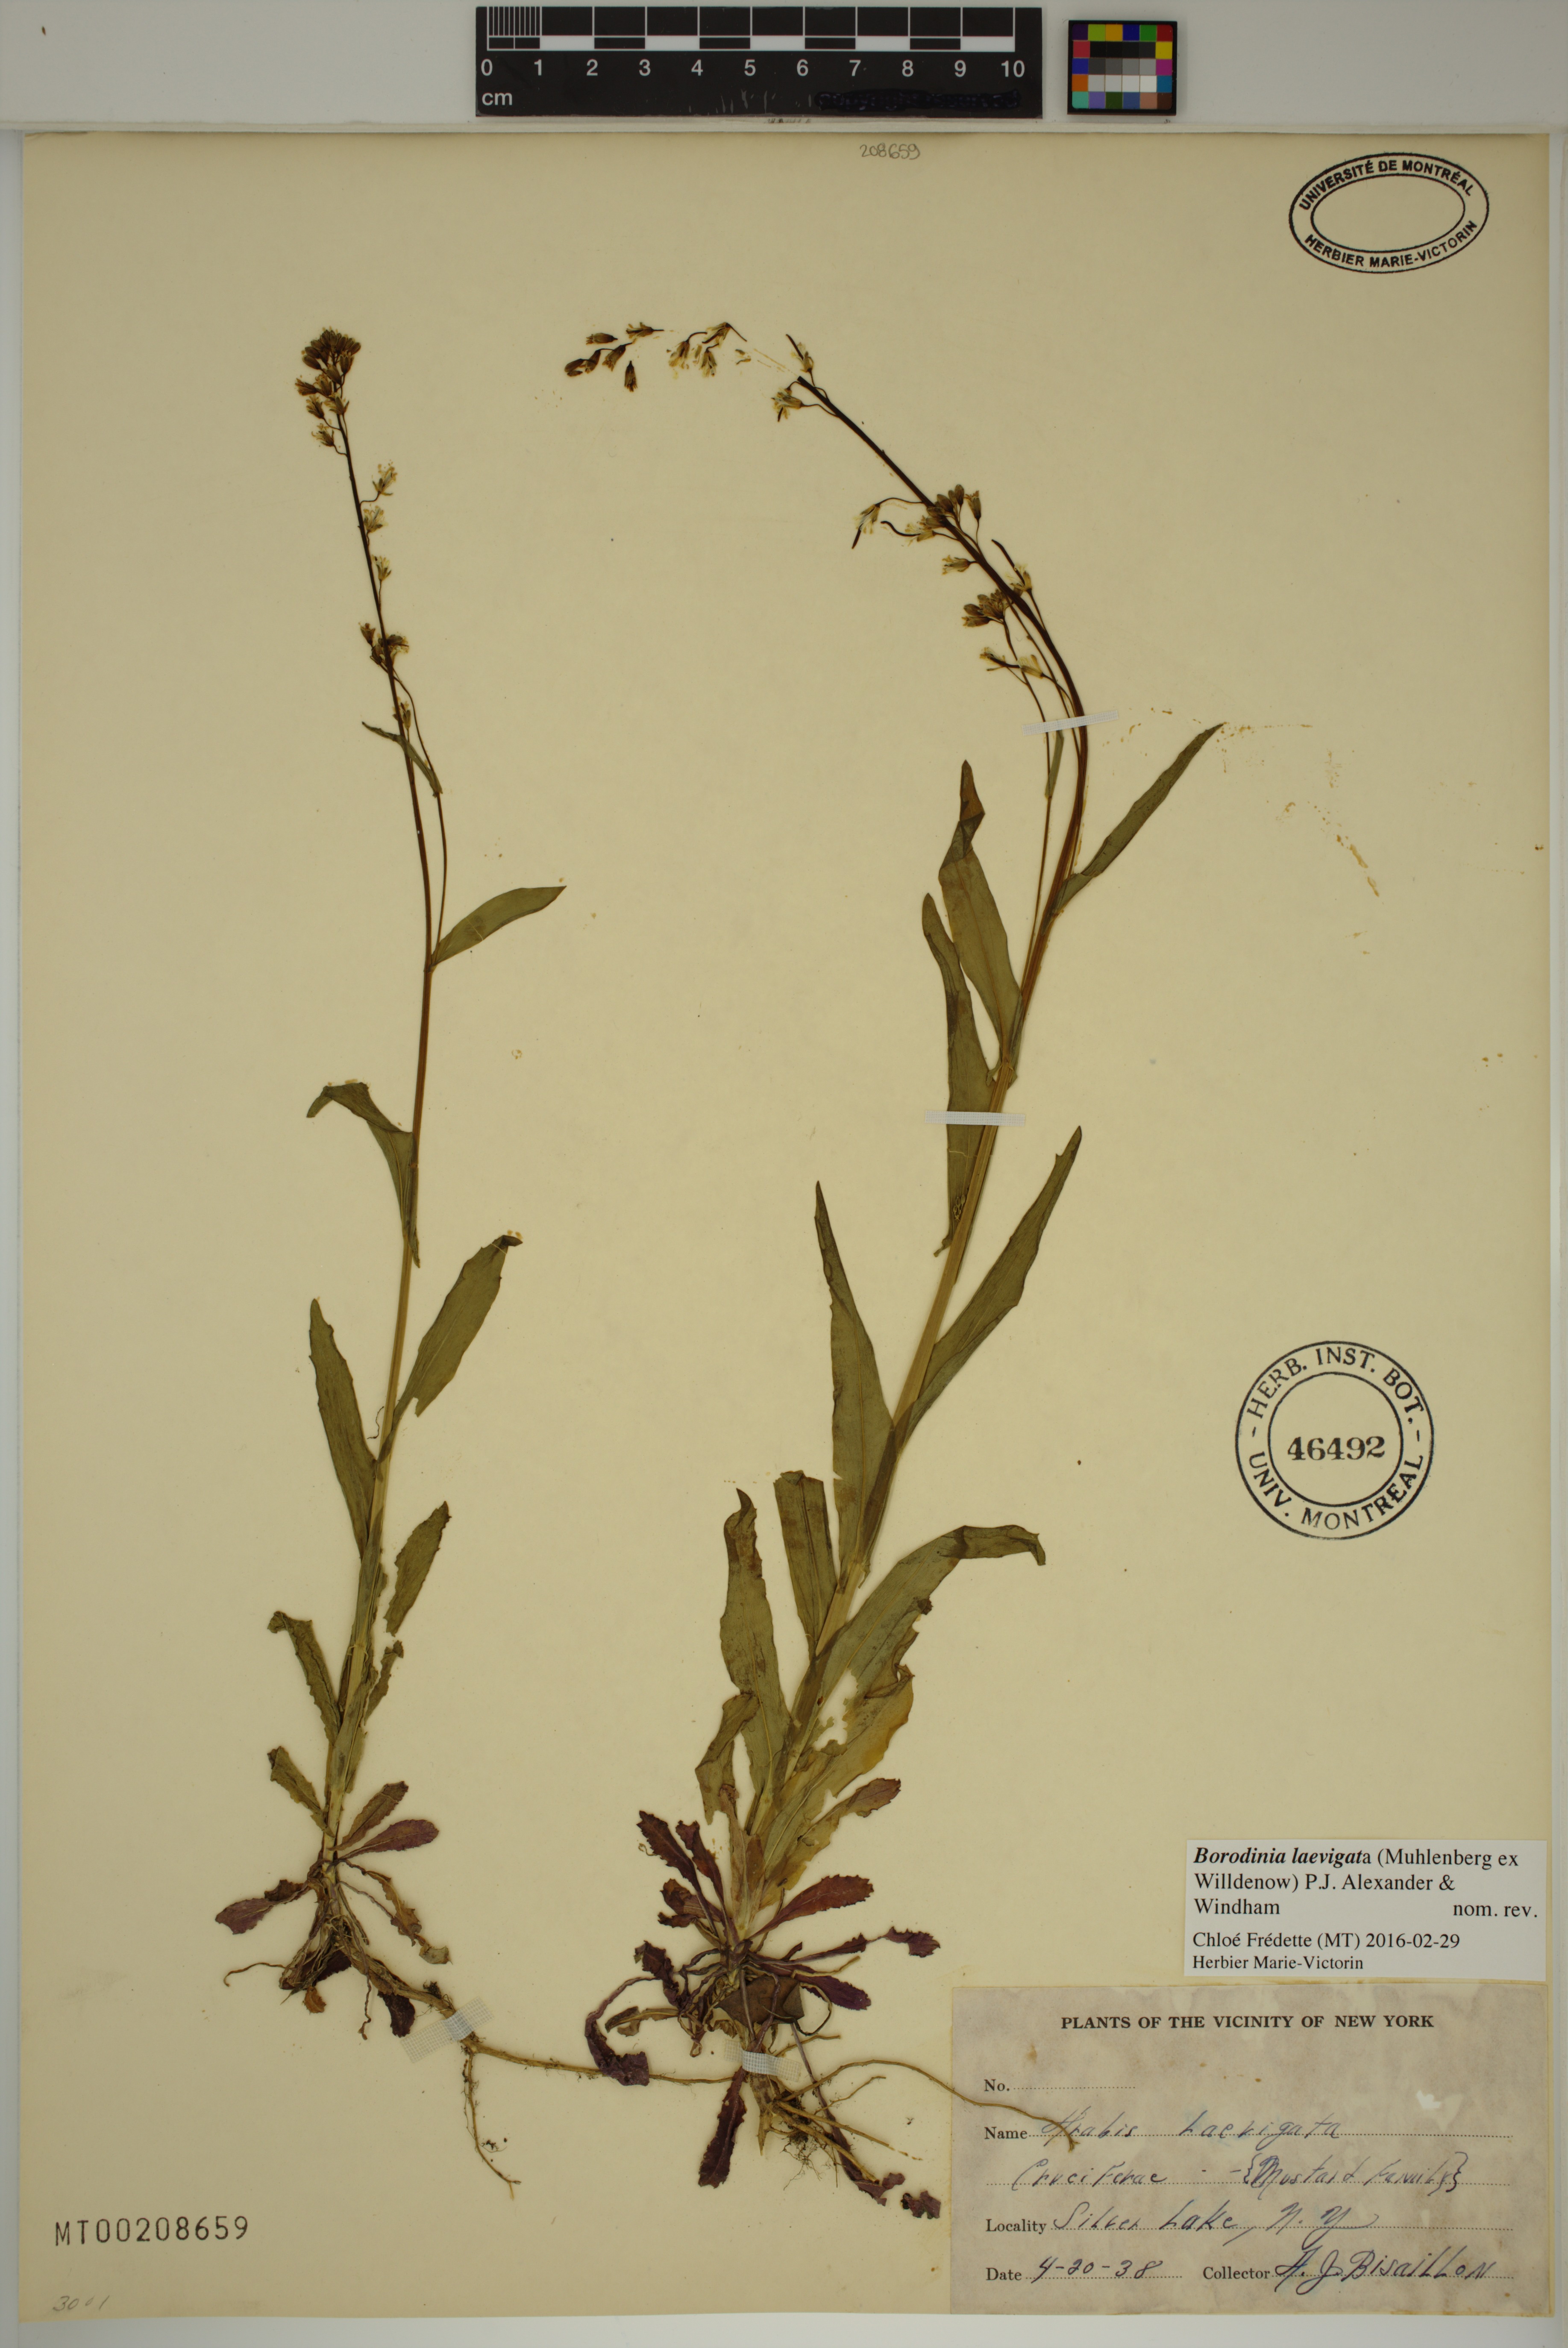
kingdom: Plantae
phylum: Tracheophyta
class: Magnoliopsida
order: Brassicales
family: Brassicaceae
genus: Borodinia
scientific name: Borodinia laevigata
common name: Smooth rockcress
